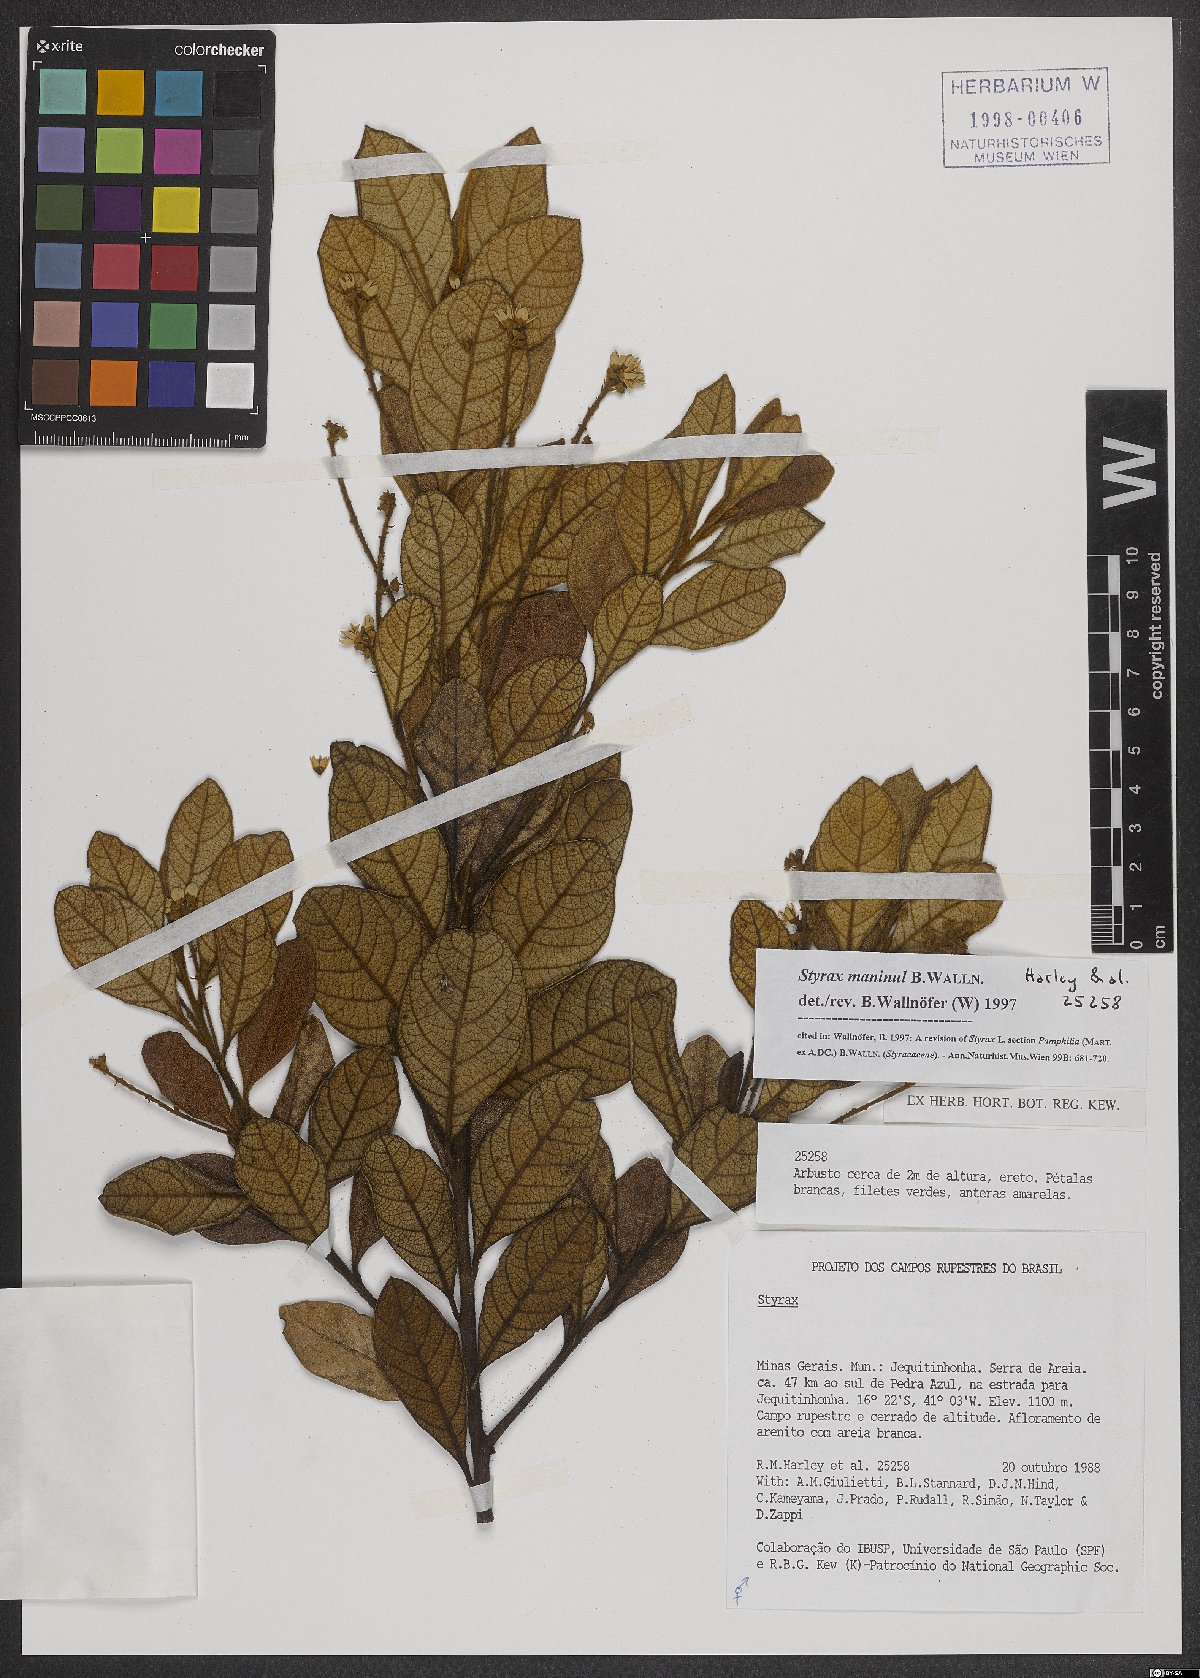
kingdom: Plantae
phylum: Tracheophyta
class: Magnoliopsida
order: Ericales
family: Styracaceae
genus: Styrax
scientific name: Styrax maninul
